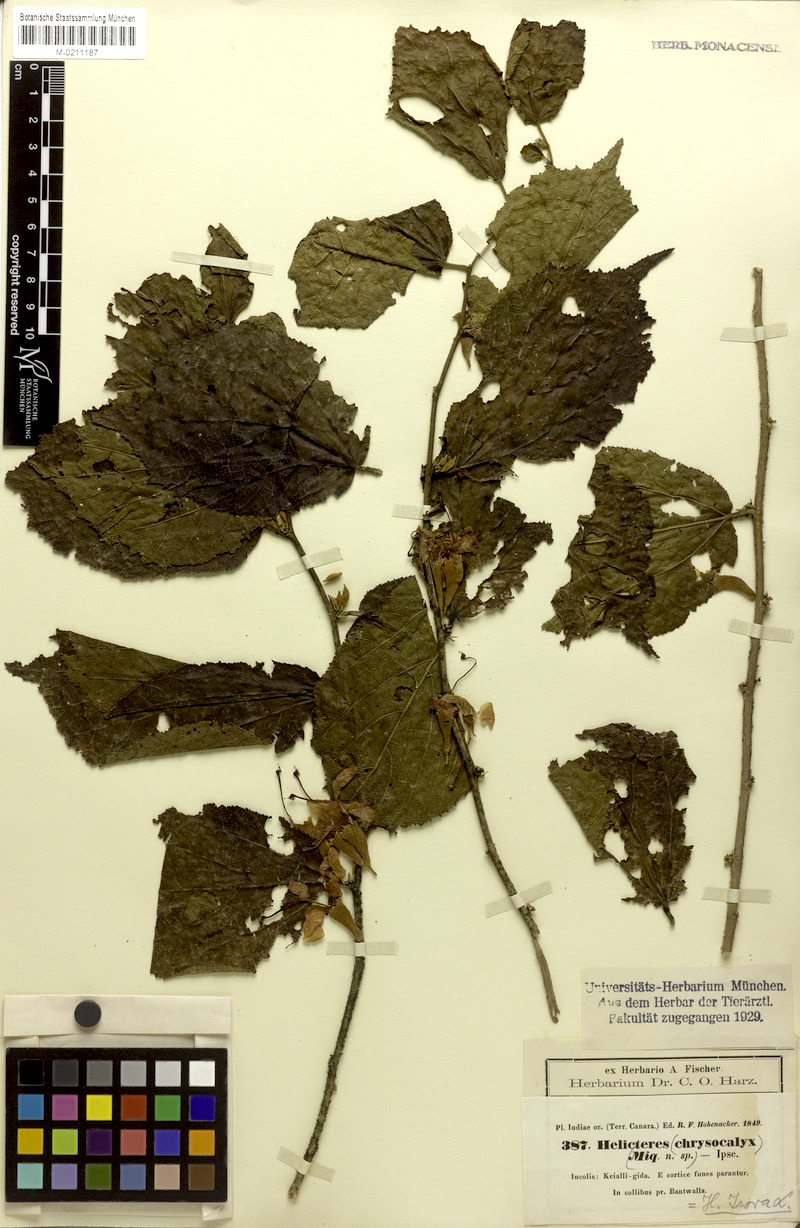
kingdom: Plantae
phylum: Tracheophyta
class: Magnoliopsida
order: Malvales
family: Malvaceae
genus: Helicteres
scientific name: Helicteres isora
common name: East indian screwtree
